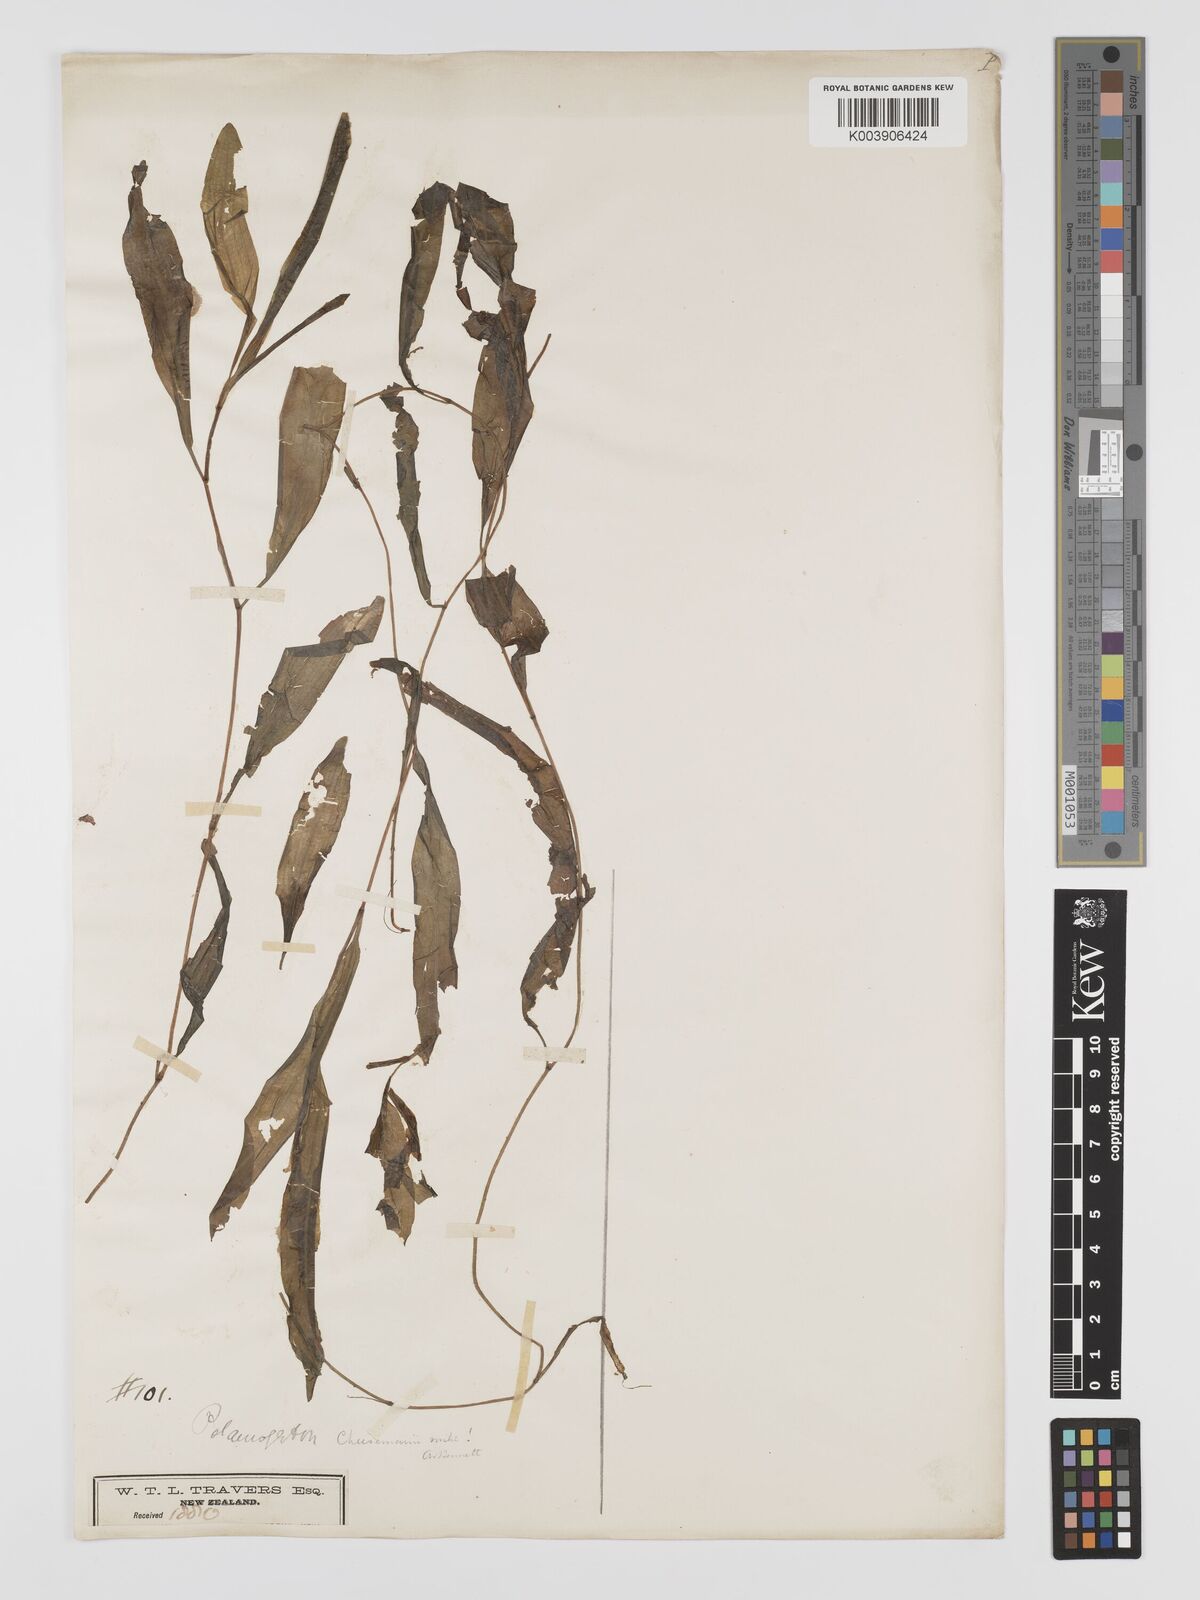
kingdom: Plantae
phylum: Tracheophyta
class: Liliopsida
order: Alismatales
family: Potamogetonaceae
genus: Potamogeton
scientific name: Potamogeton cheesemanii
